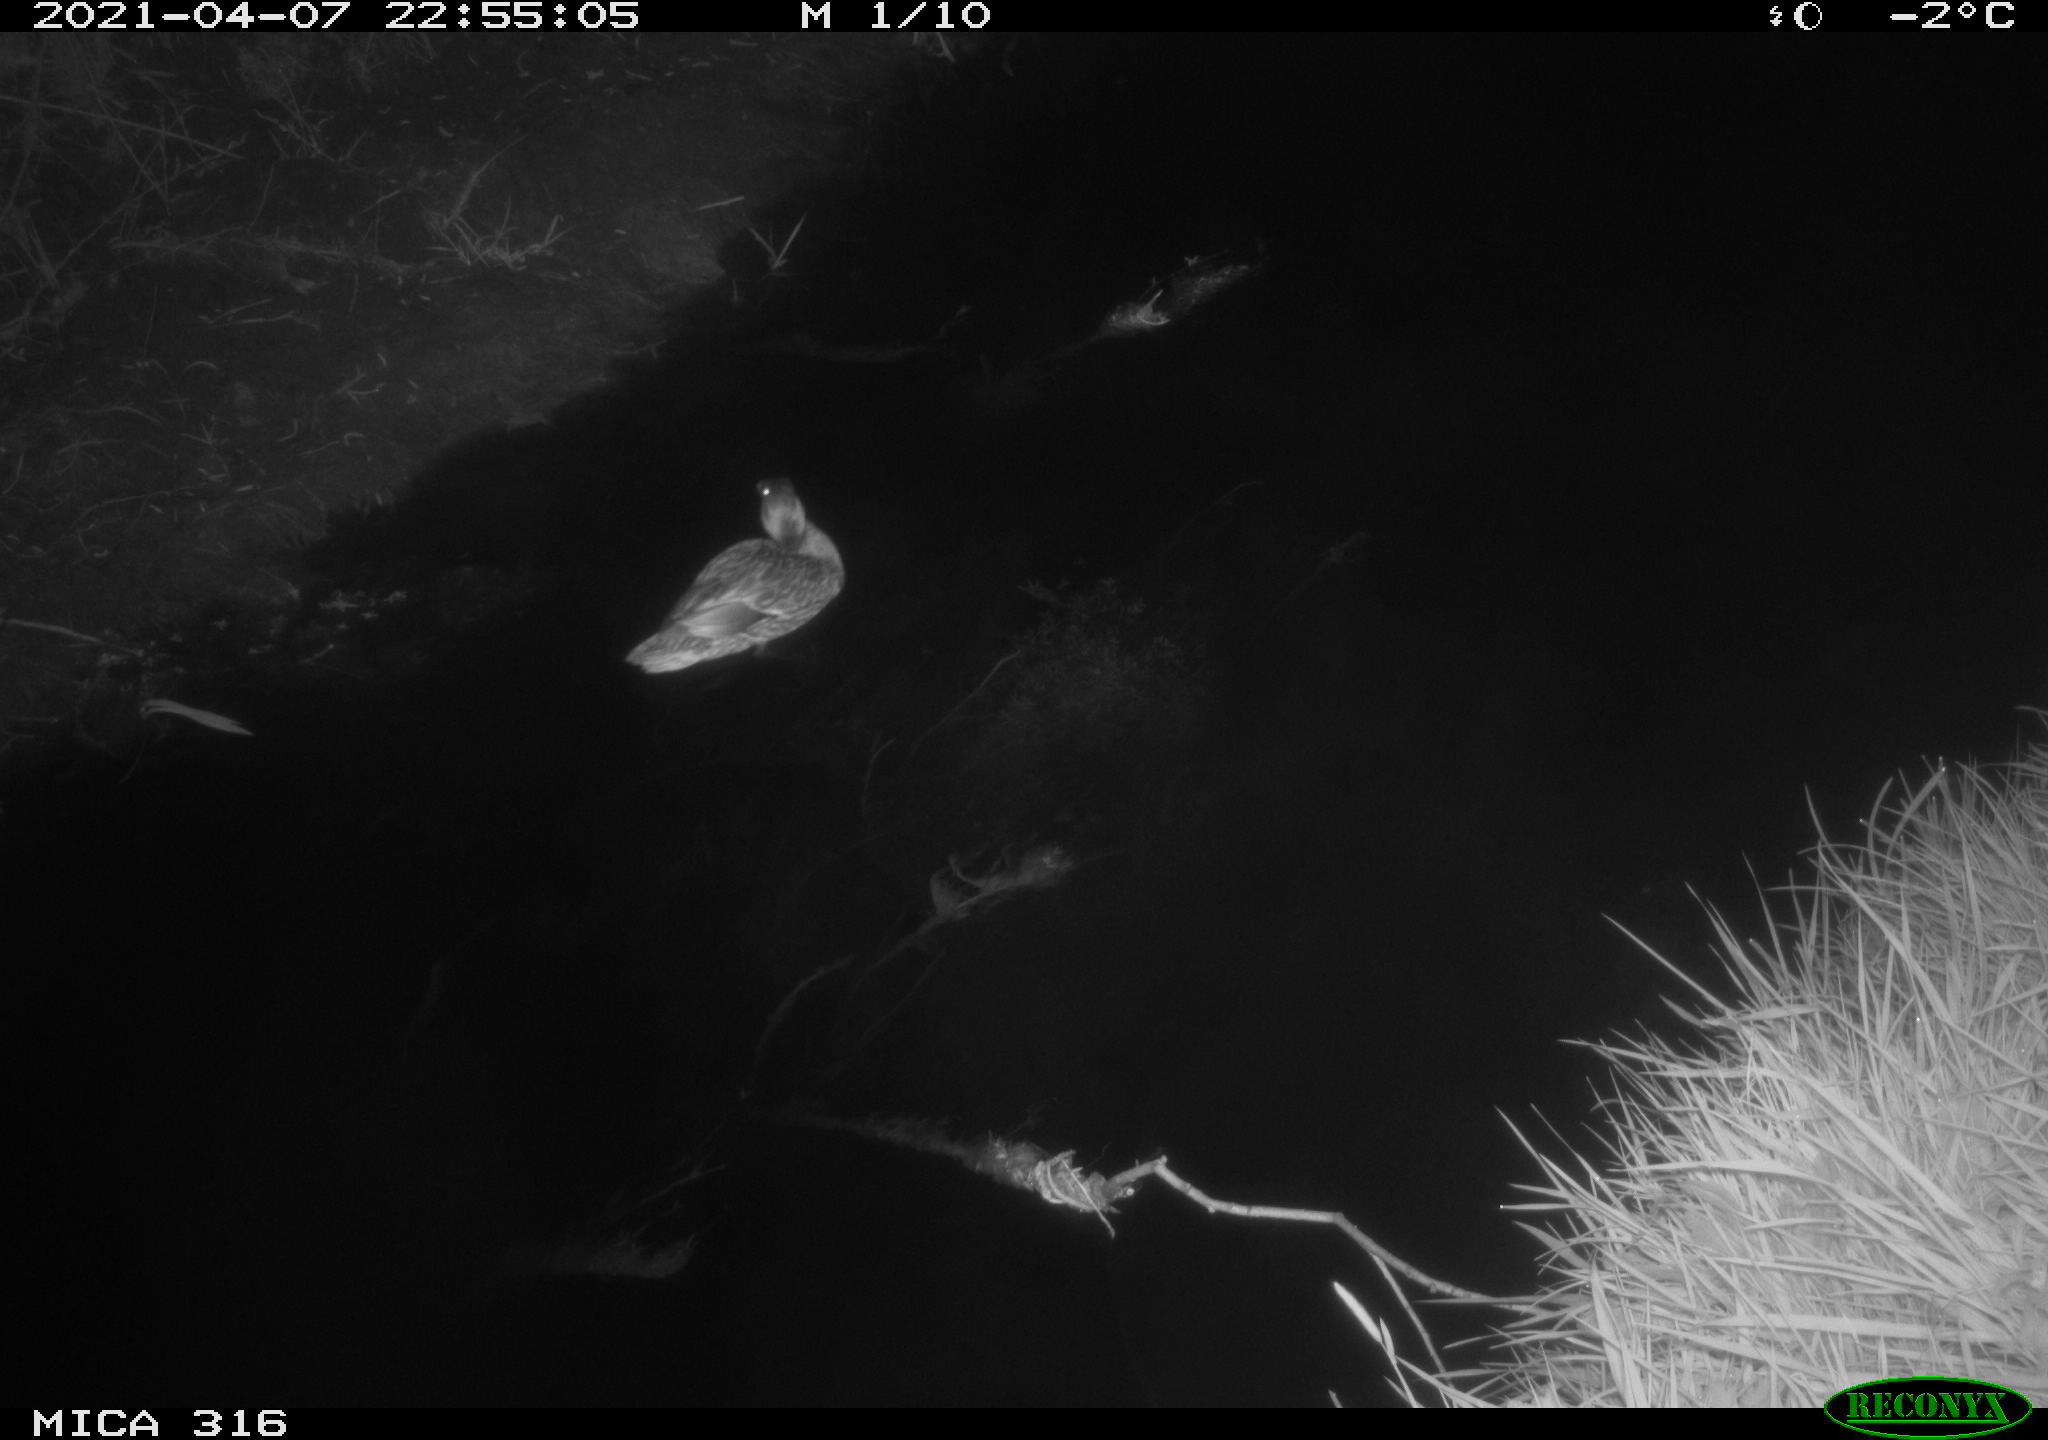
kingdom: Animalia
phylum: Chordata
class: Aves
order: Anseriformes
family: Anatidae
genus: Anas
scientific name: Anas platyrhynchos
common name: Mallard
